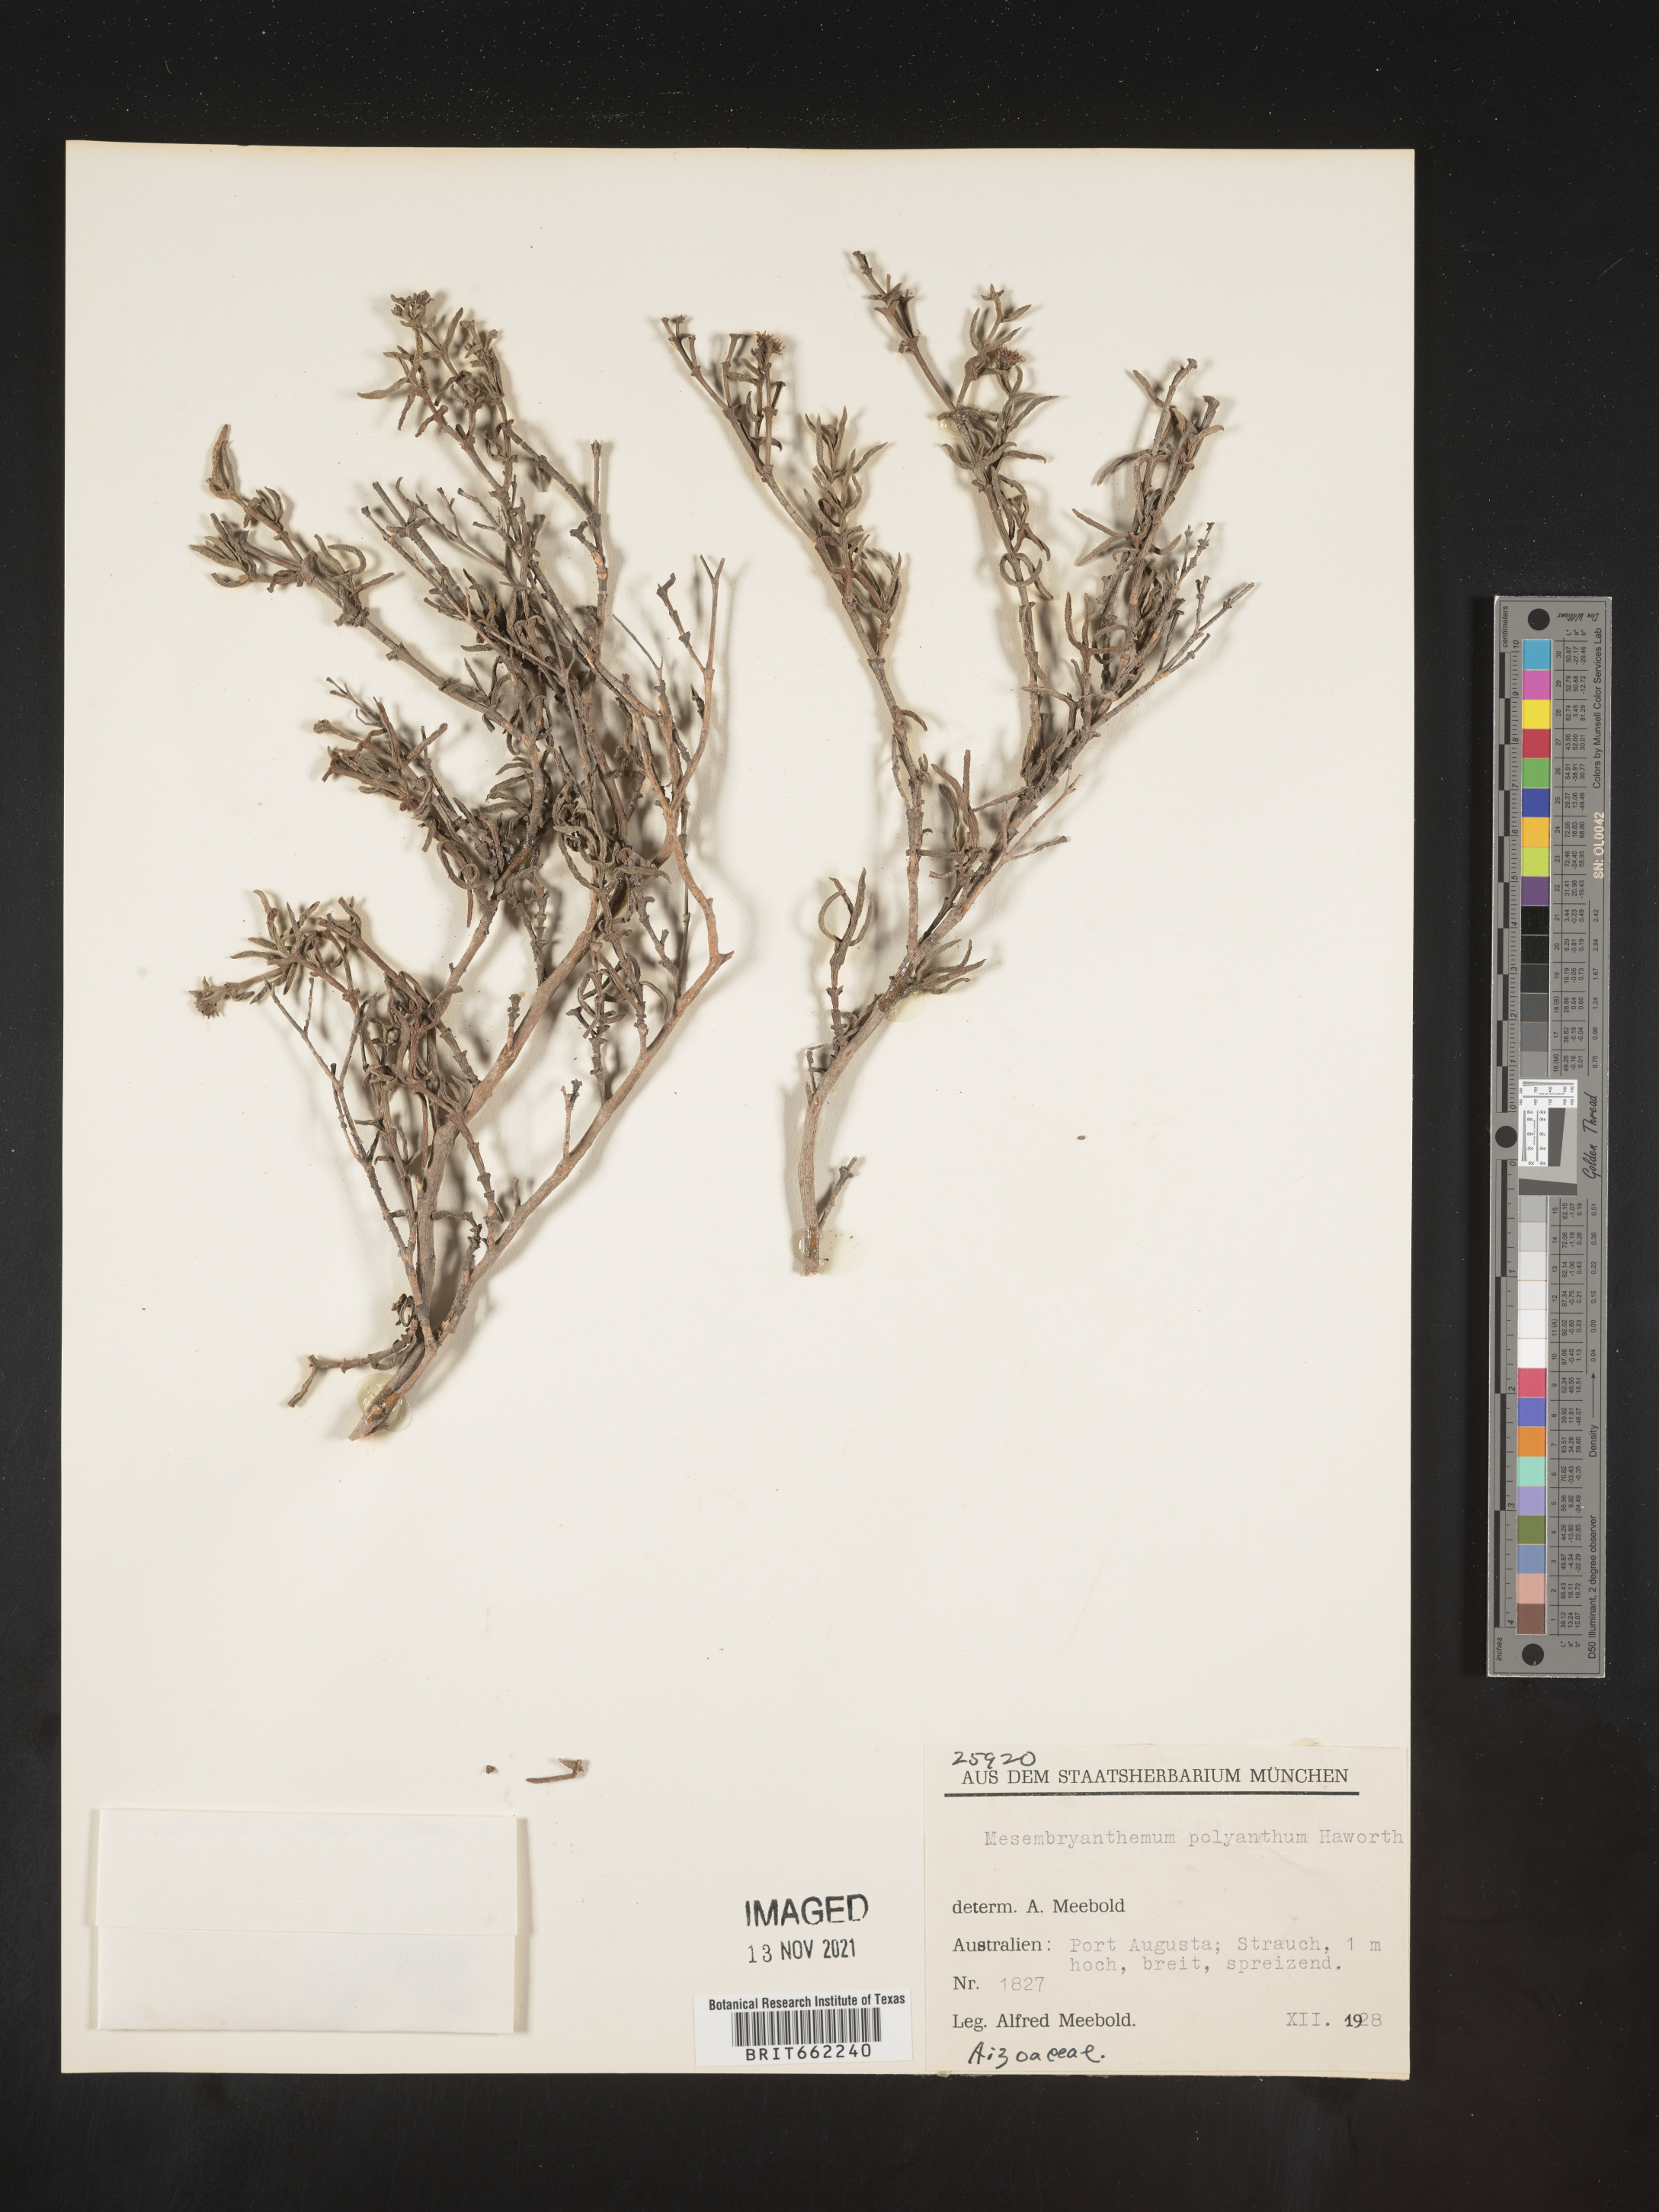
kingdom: Plantae
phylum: Tracheophyta
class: Magnoliopsida
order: Caryophyllales
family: Aizoaceae
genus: Mesembryanthemum
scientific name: Mesembryanthemum
